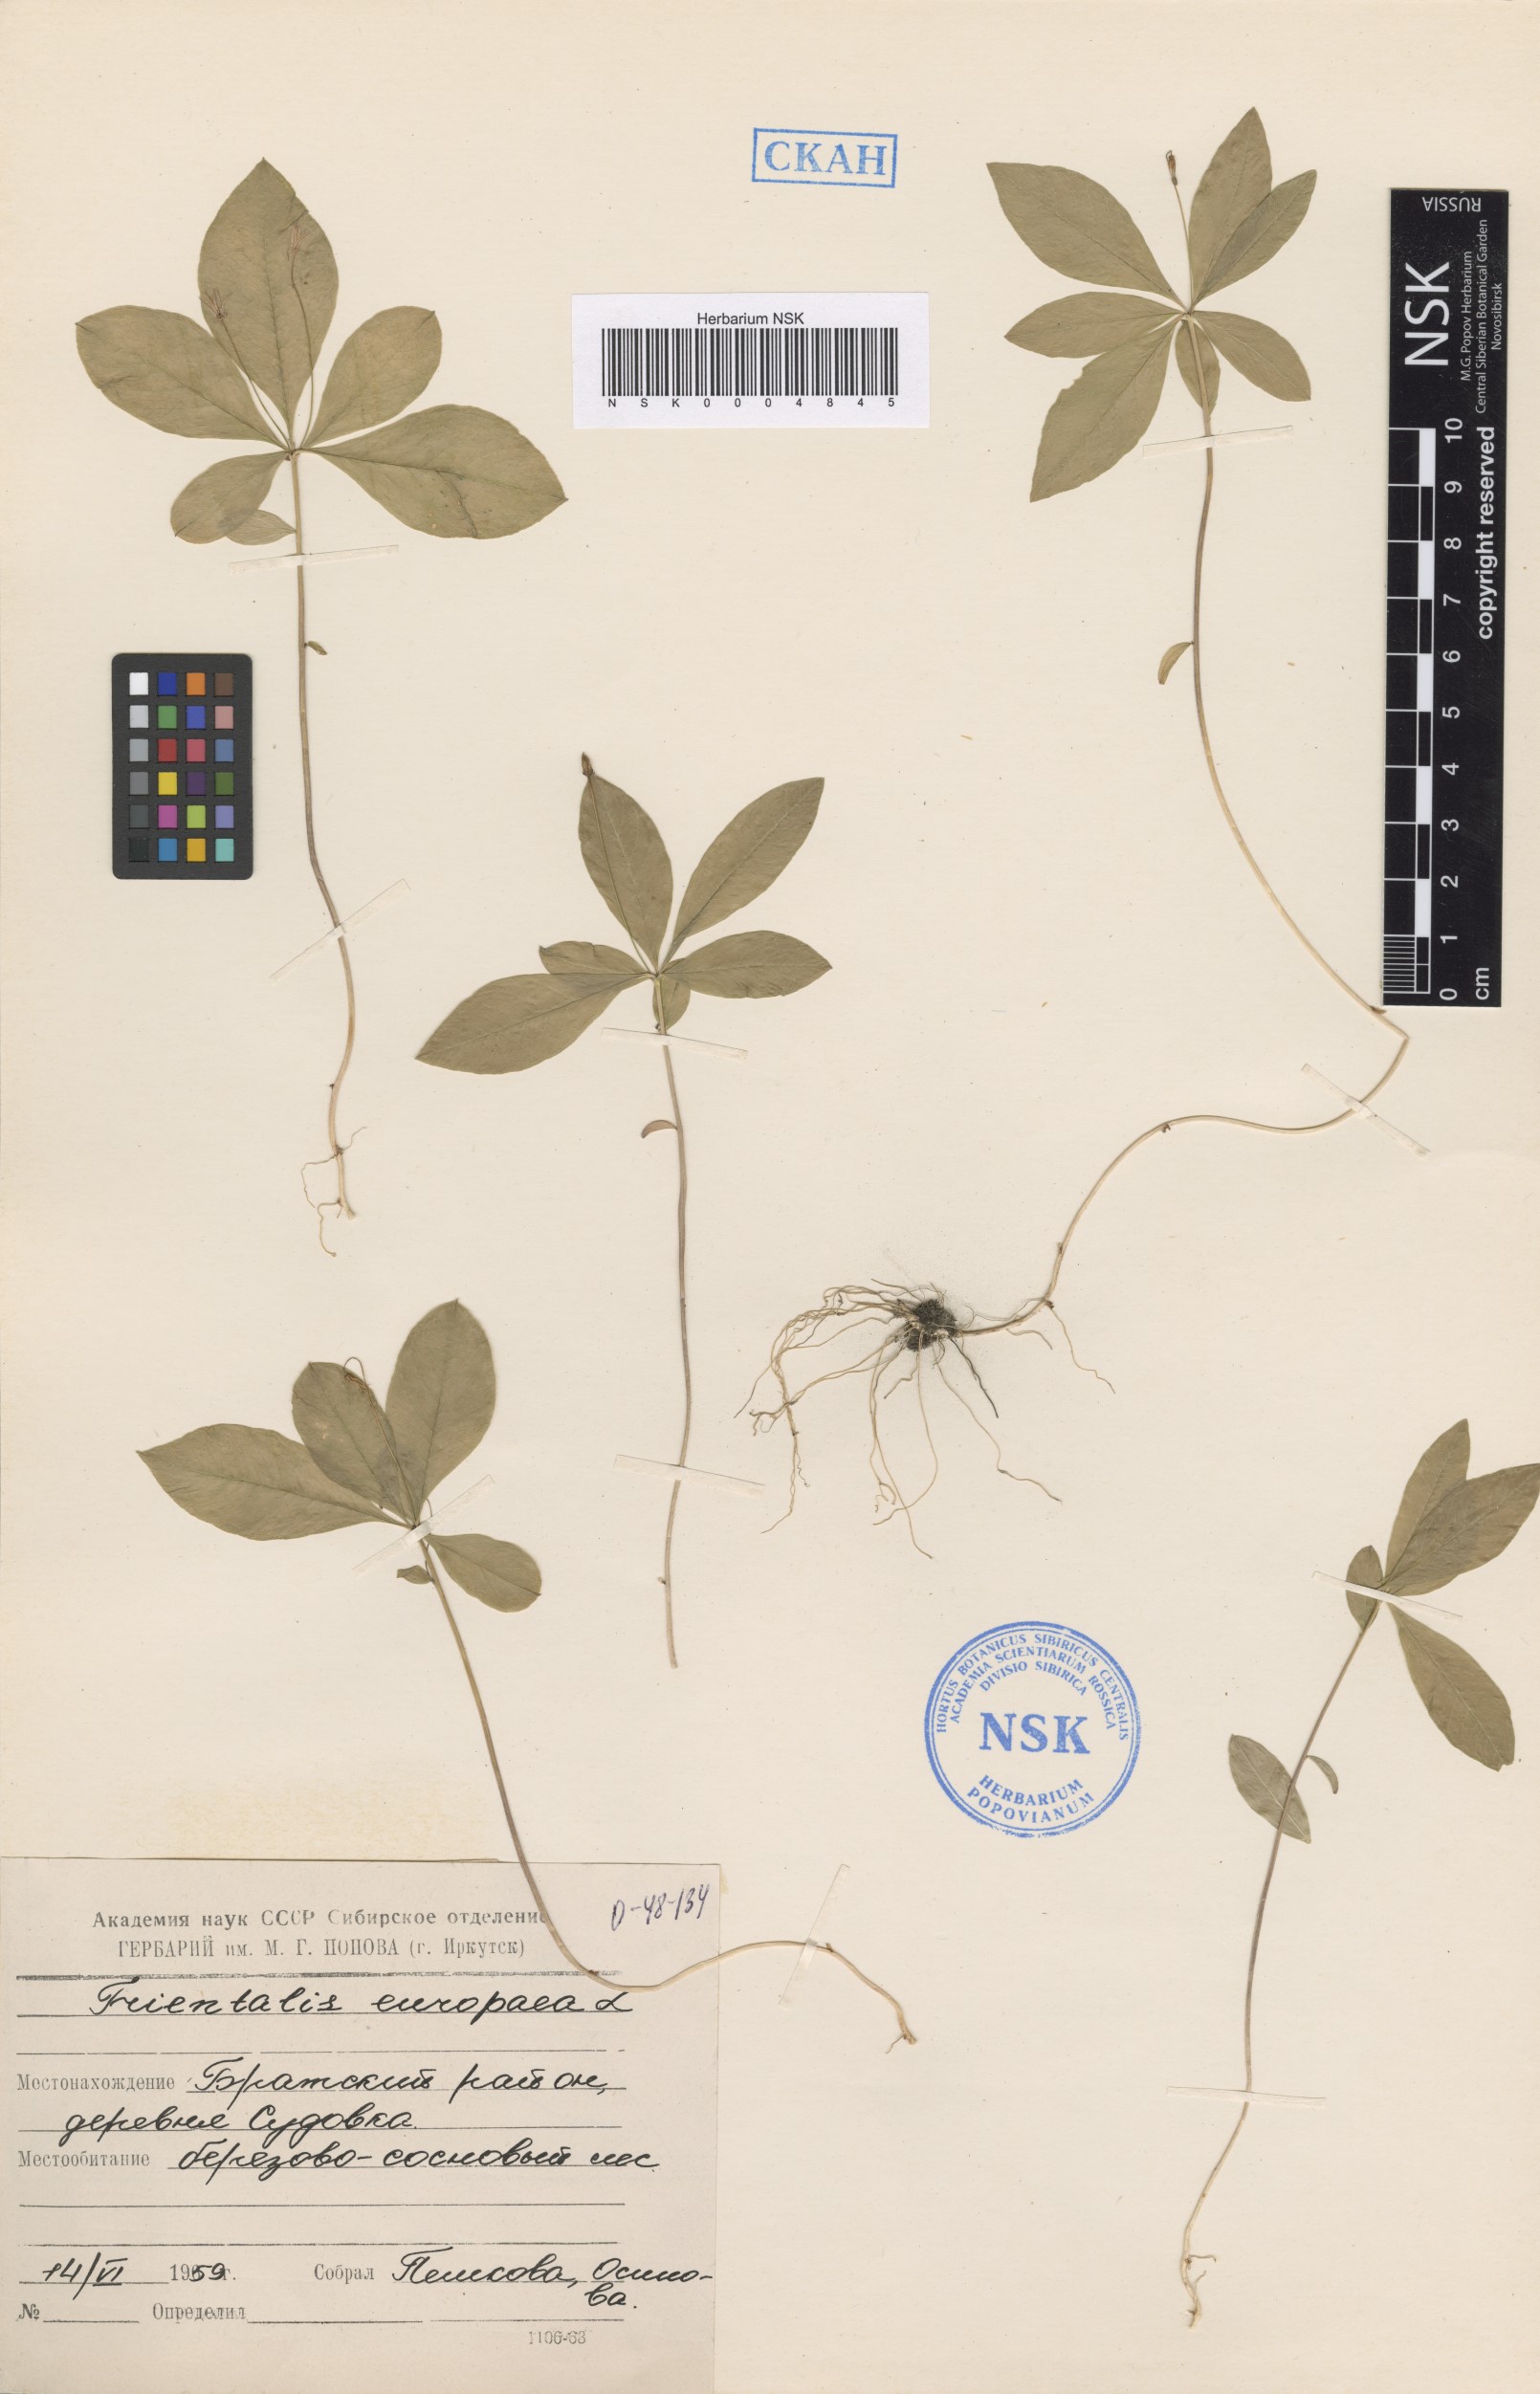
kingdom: Plantae
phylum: Tracheophyta
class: Magnoliopsida
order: Ericales
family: Primulaceae
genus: Lysimachia
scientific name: Lysimachia europaea
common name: Arctic starflower
